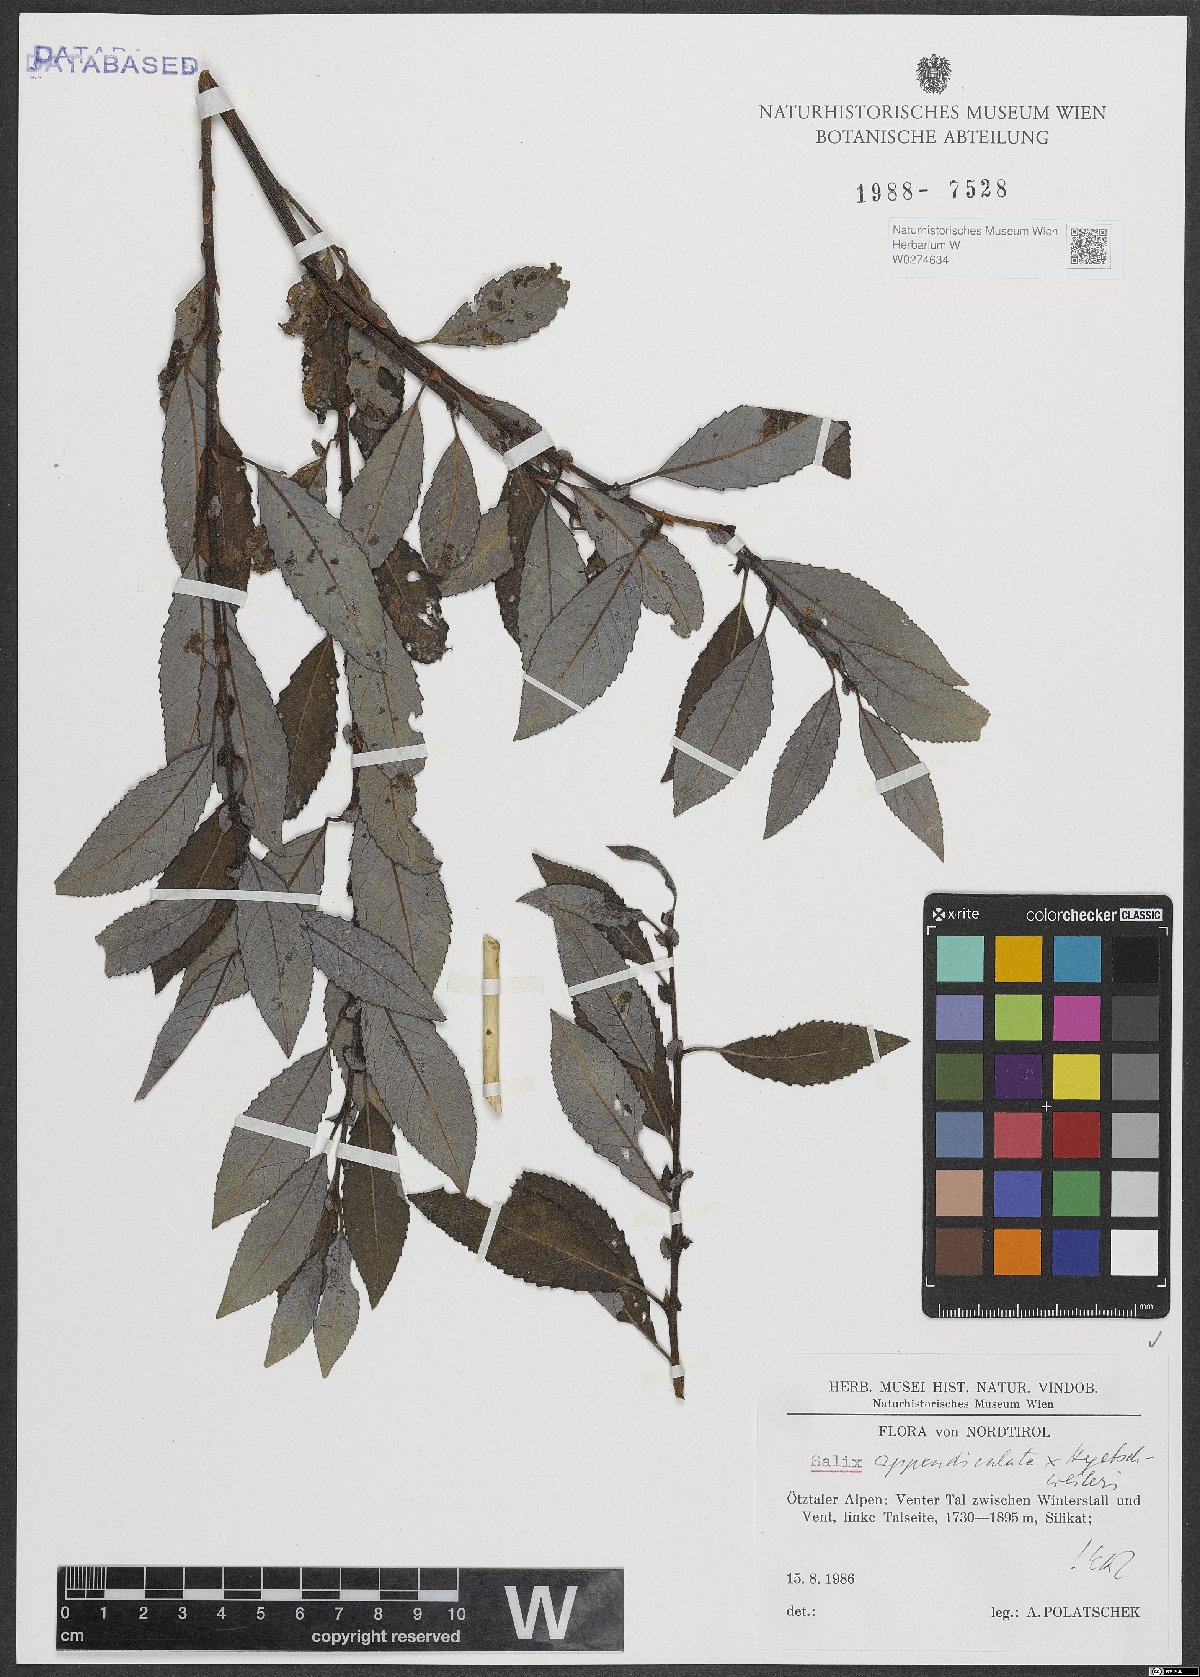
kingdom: Plantae
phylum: Tracheophyta
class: Magnoliopsida
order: Malpighiales
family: Salicaceae
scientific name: Salicaceae
